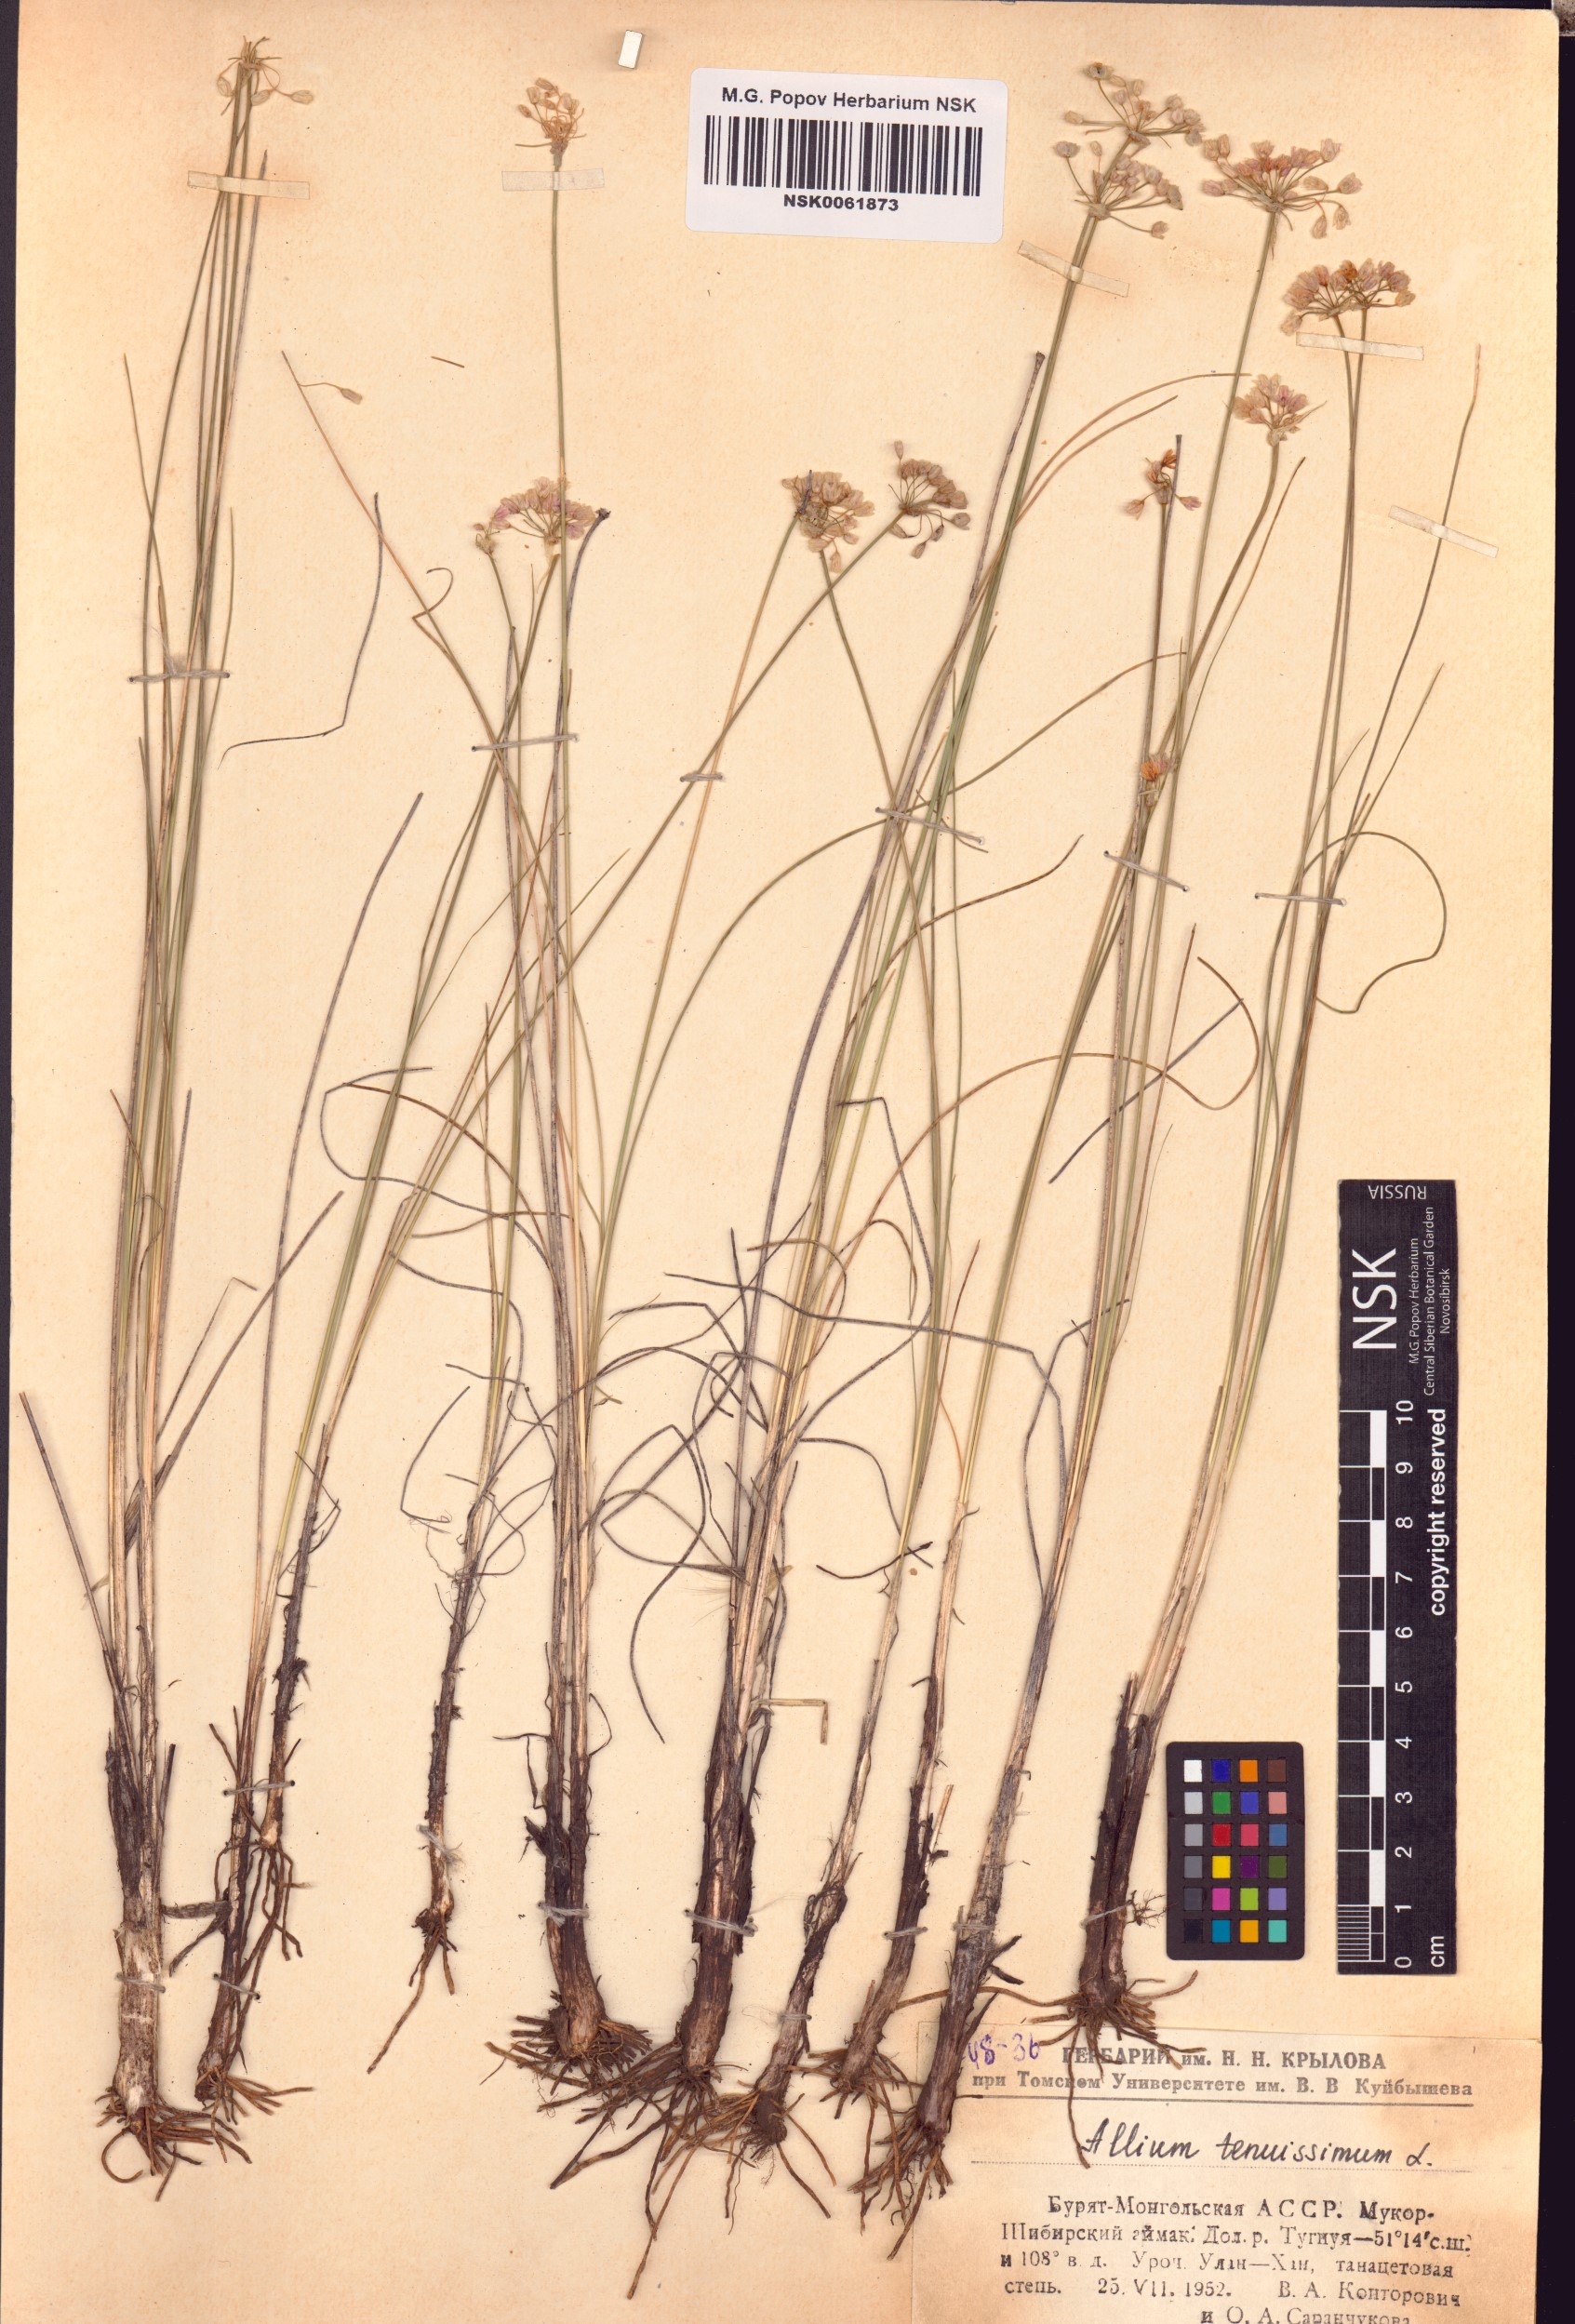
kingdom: Plantae
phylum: Tracheophyta
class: Liliopsida
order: Asparagales
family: Amaryllidaceae
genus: Allium
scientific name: Allium tenuissimum
